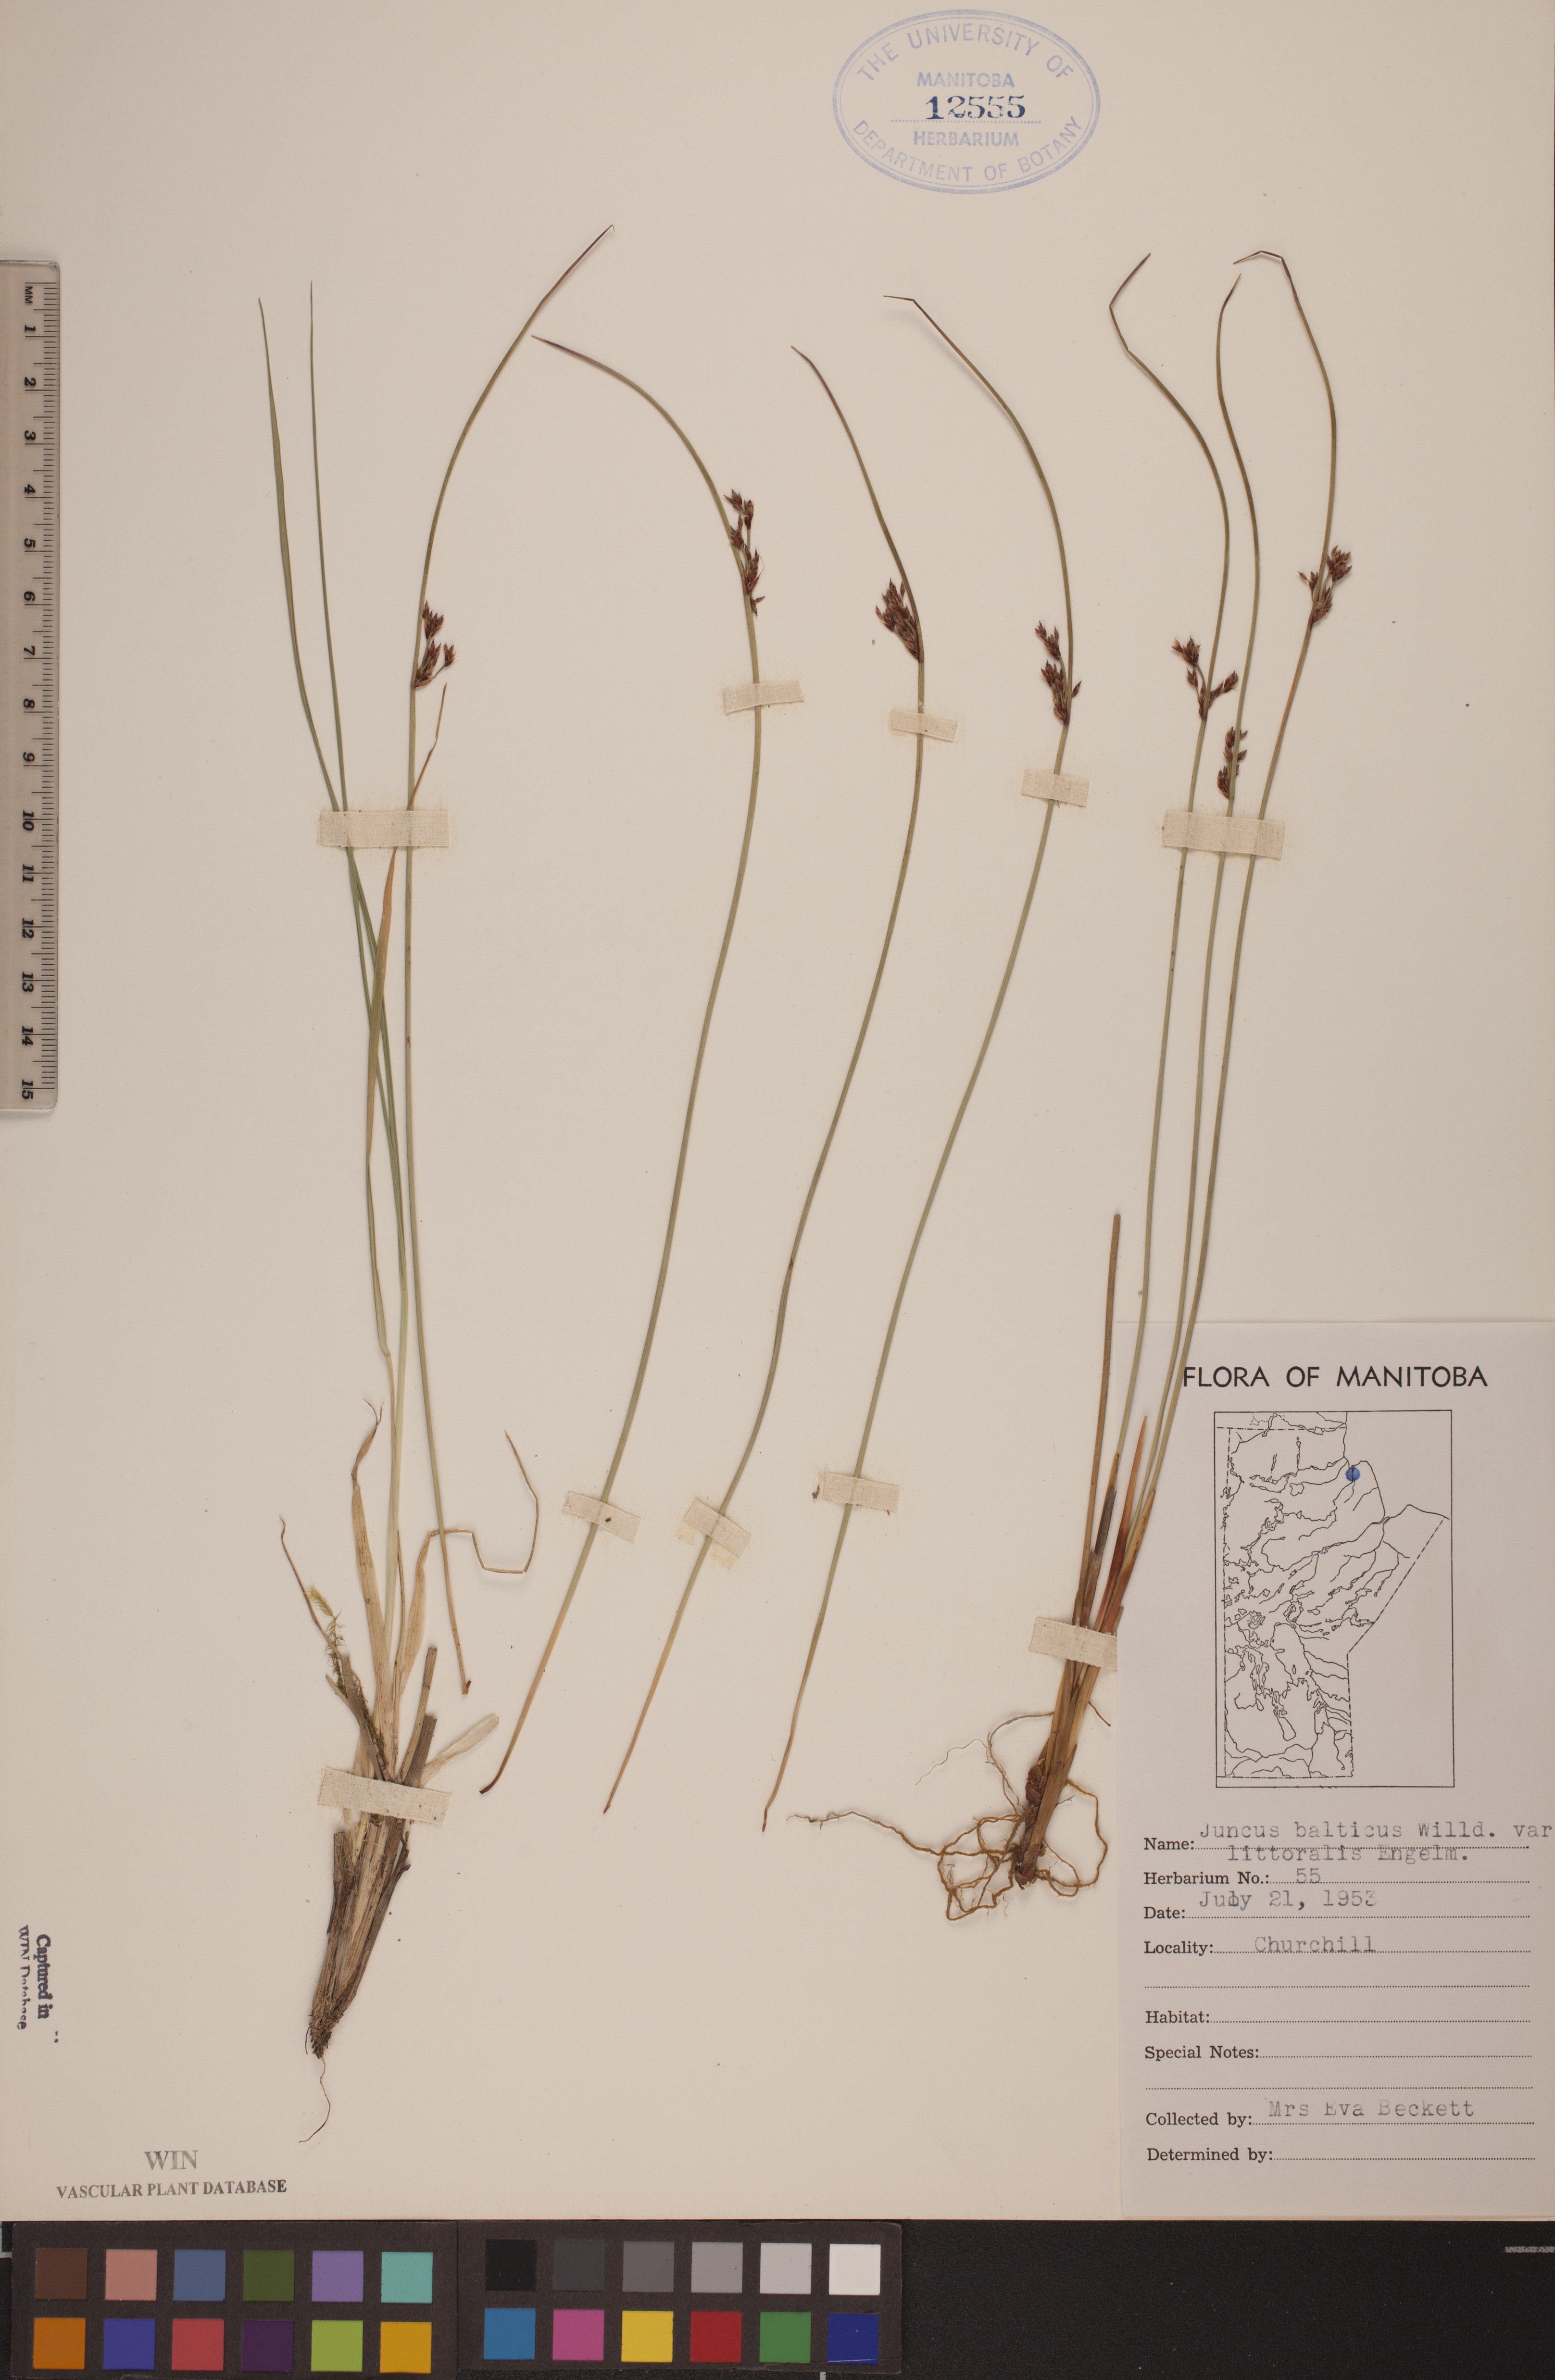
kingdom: Plantae
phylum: Tracheophyta
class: Liliopsida
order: Poales
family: Juncaceae
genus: Juncus
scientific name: Juncus balticus
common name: Baltic rush
